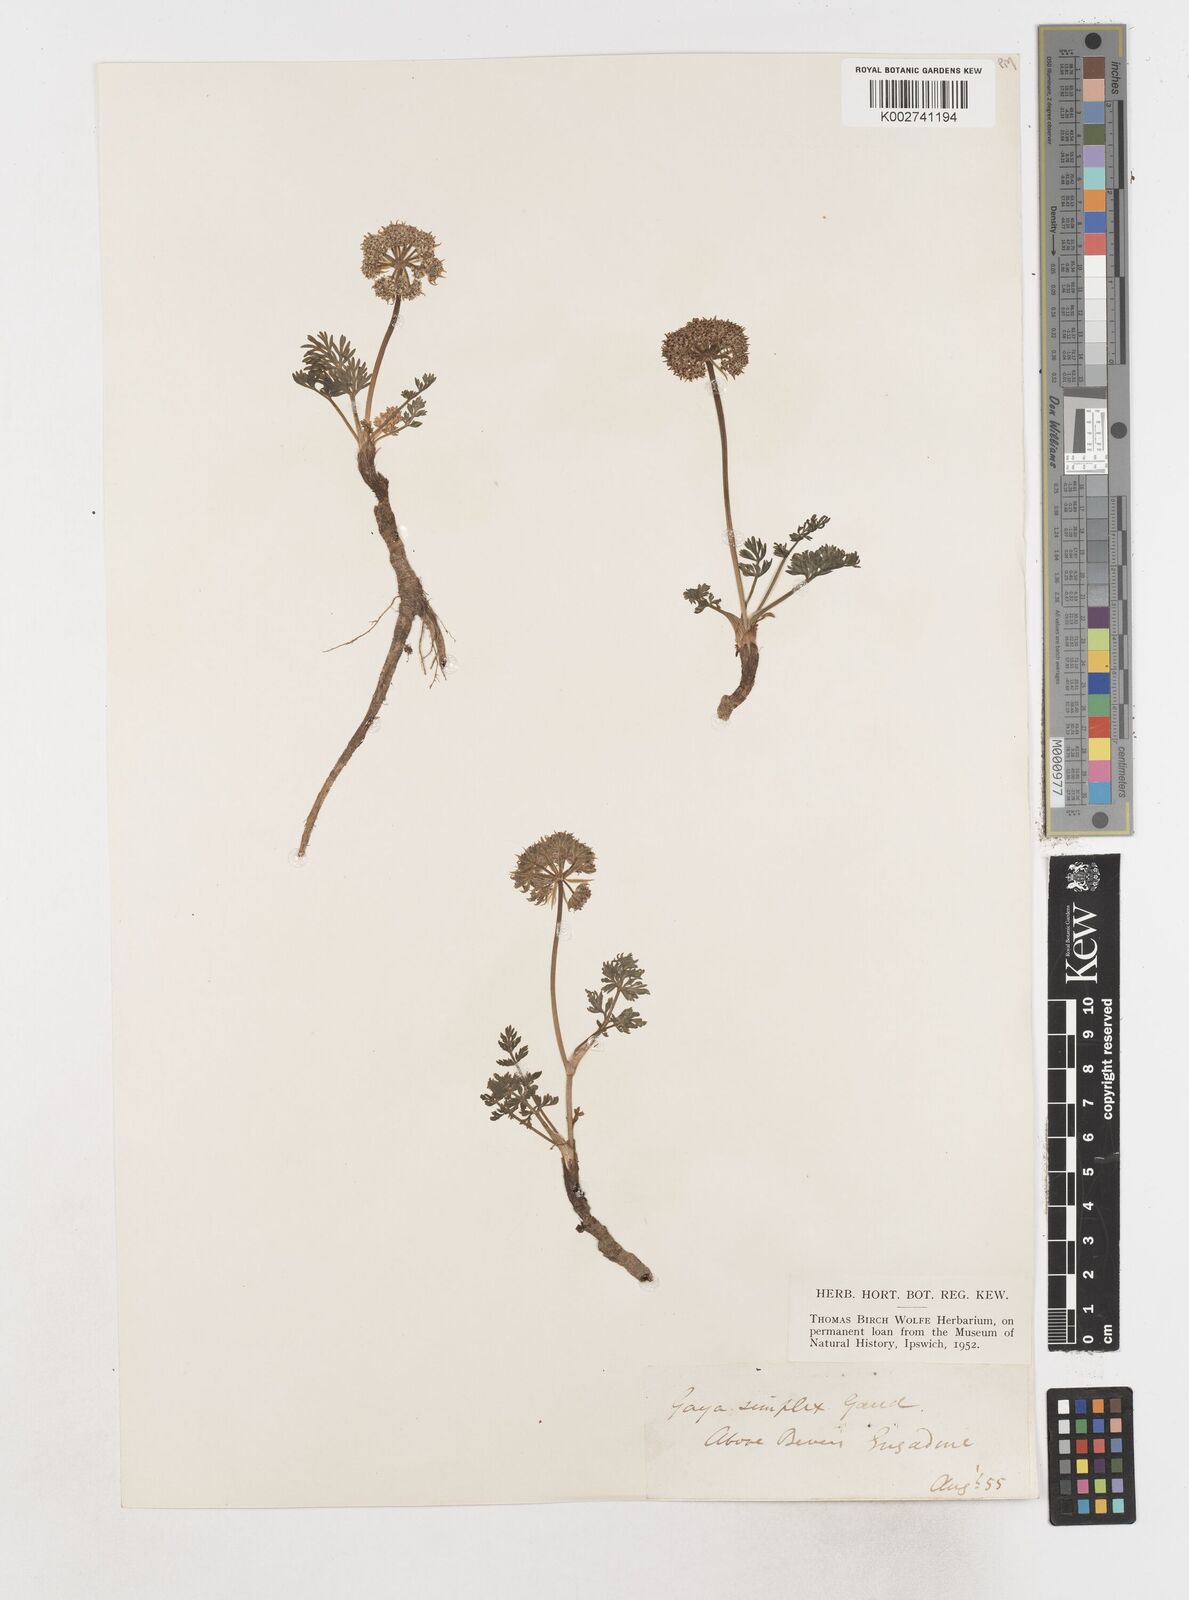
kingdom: Plantae
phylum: Tracheophyta
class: Magnoliopsida
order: Apiales
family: Apiaceae
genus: Pachypleurum
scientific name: Pachypleurum mutellinoides
